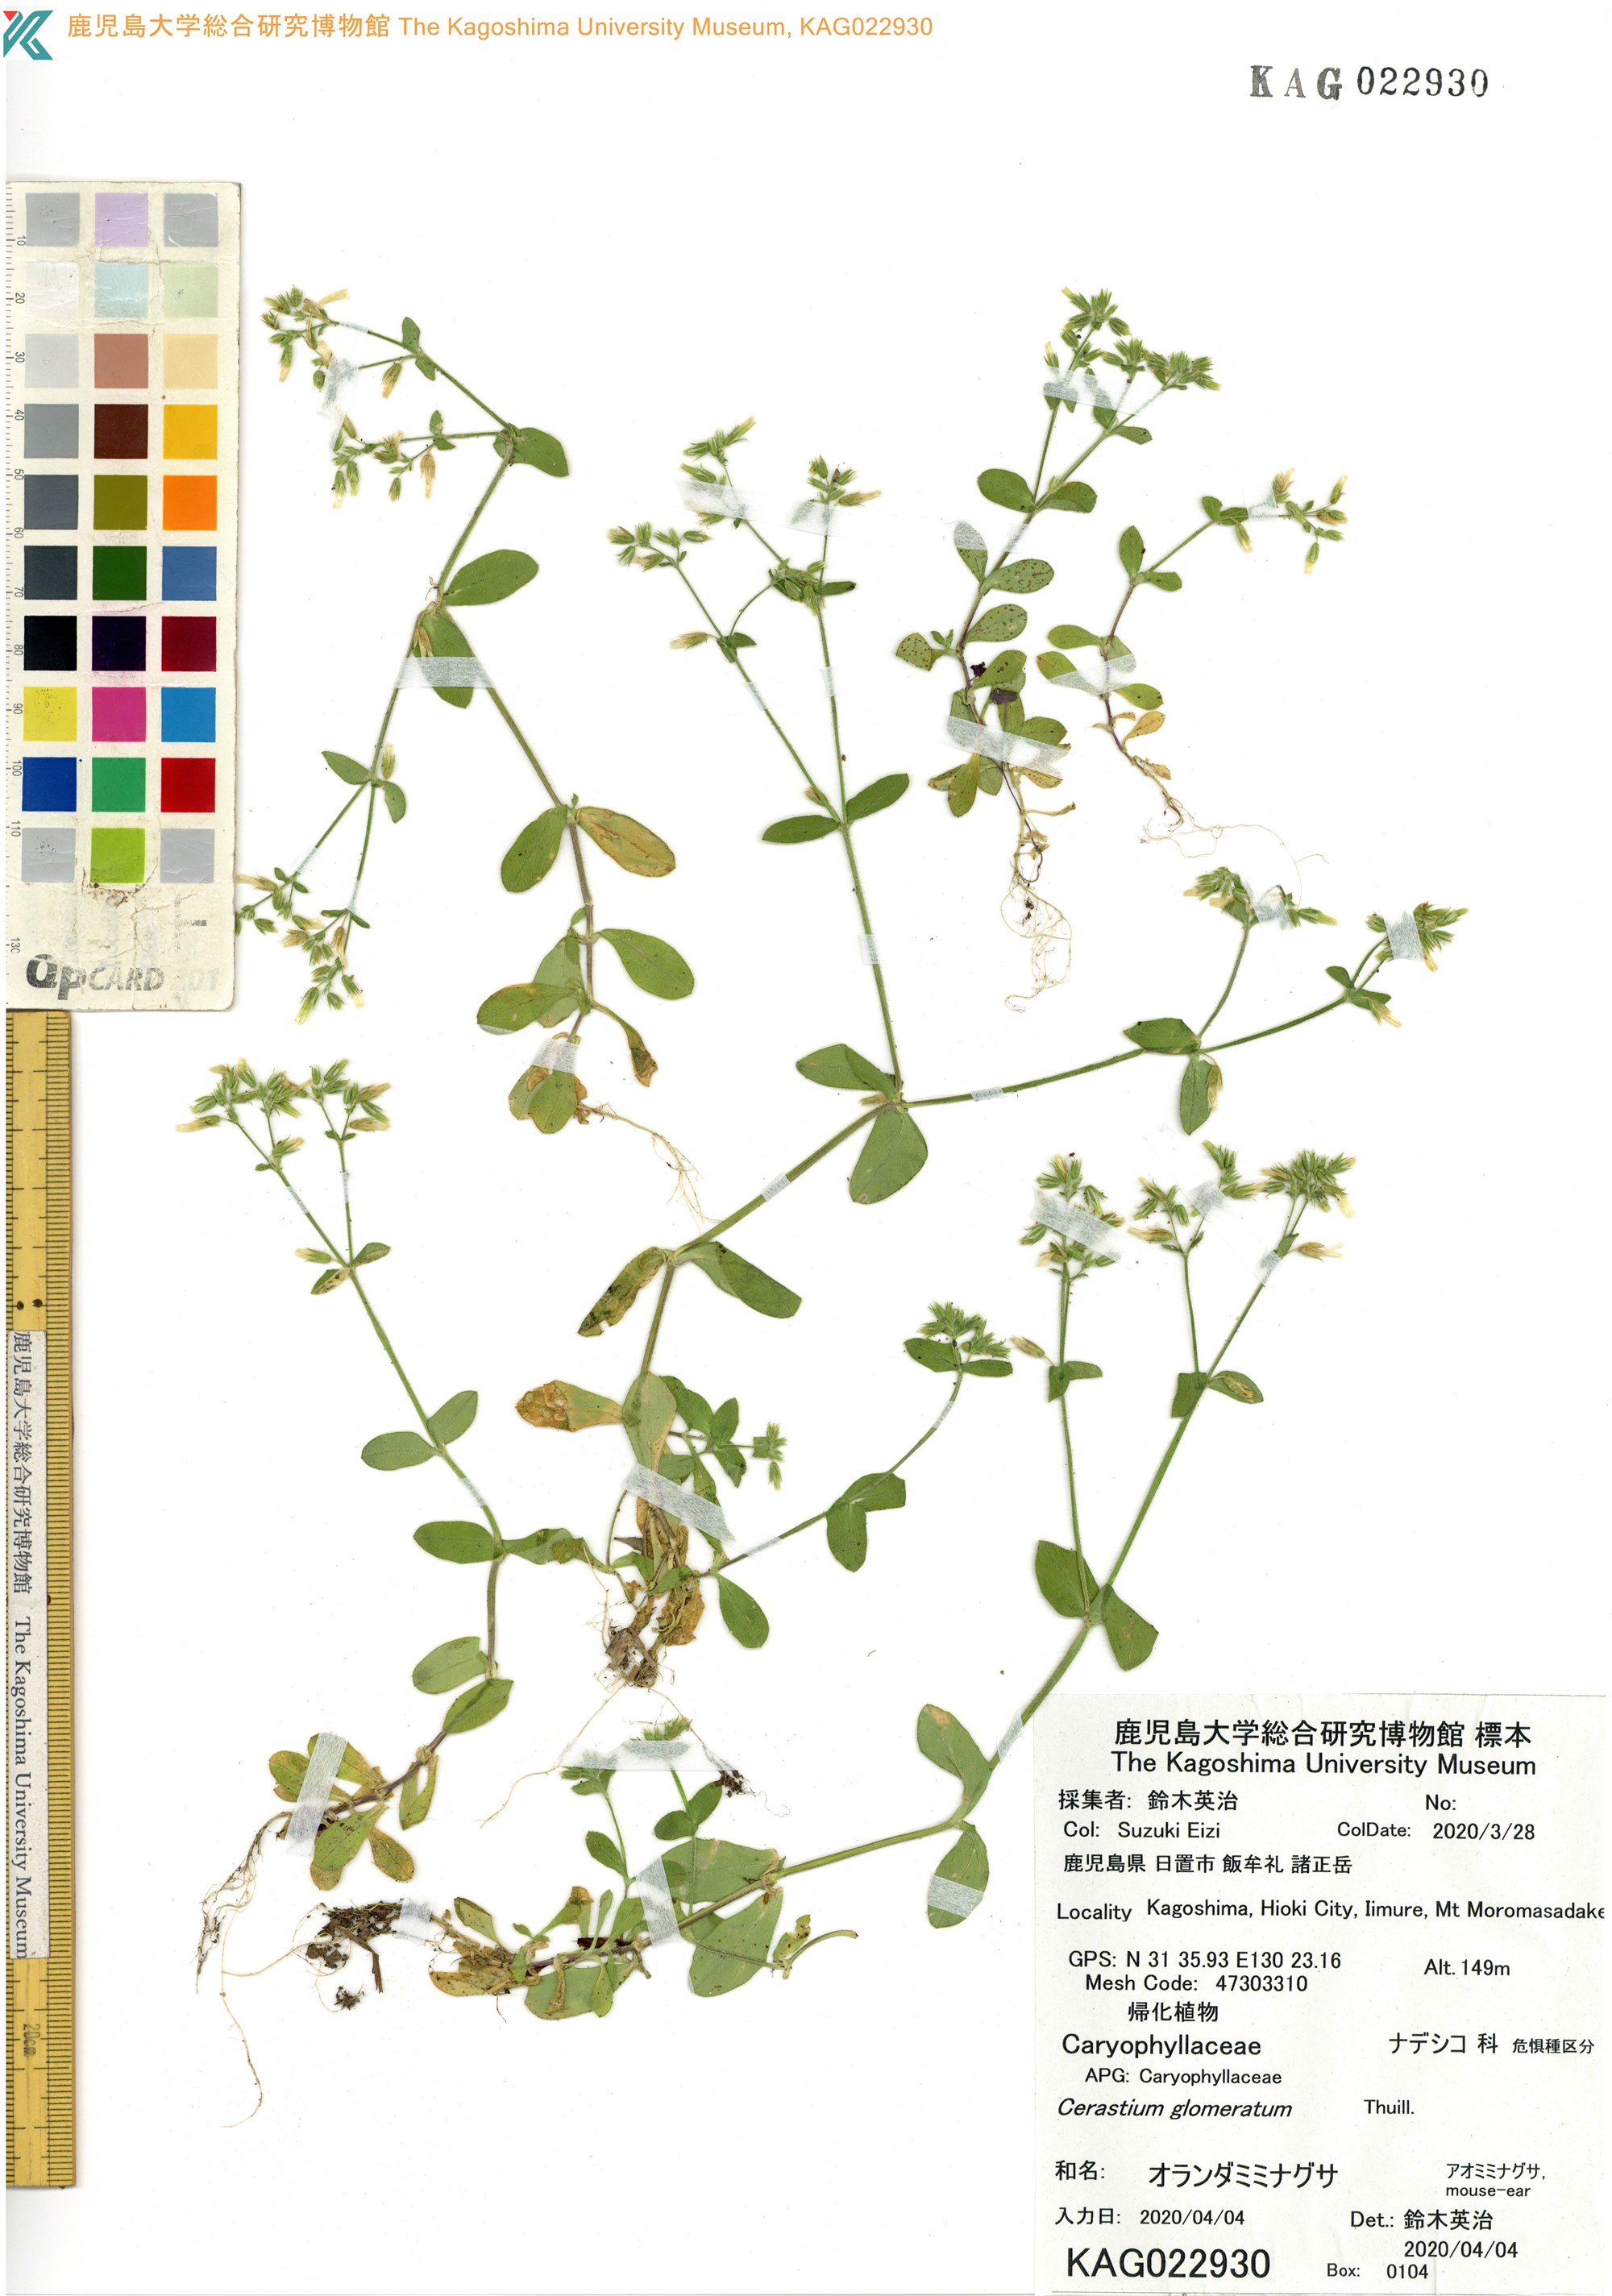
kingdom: Plantae
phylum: Tracheophyta
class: Magnoliopsida
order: Caryophyllales
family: Caryophyllaceae
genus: Cerastium
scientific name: Cerastium glomeratum
